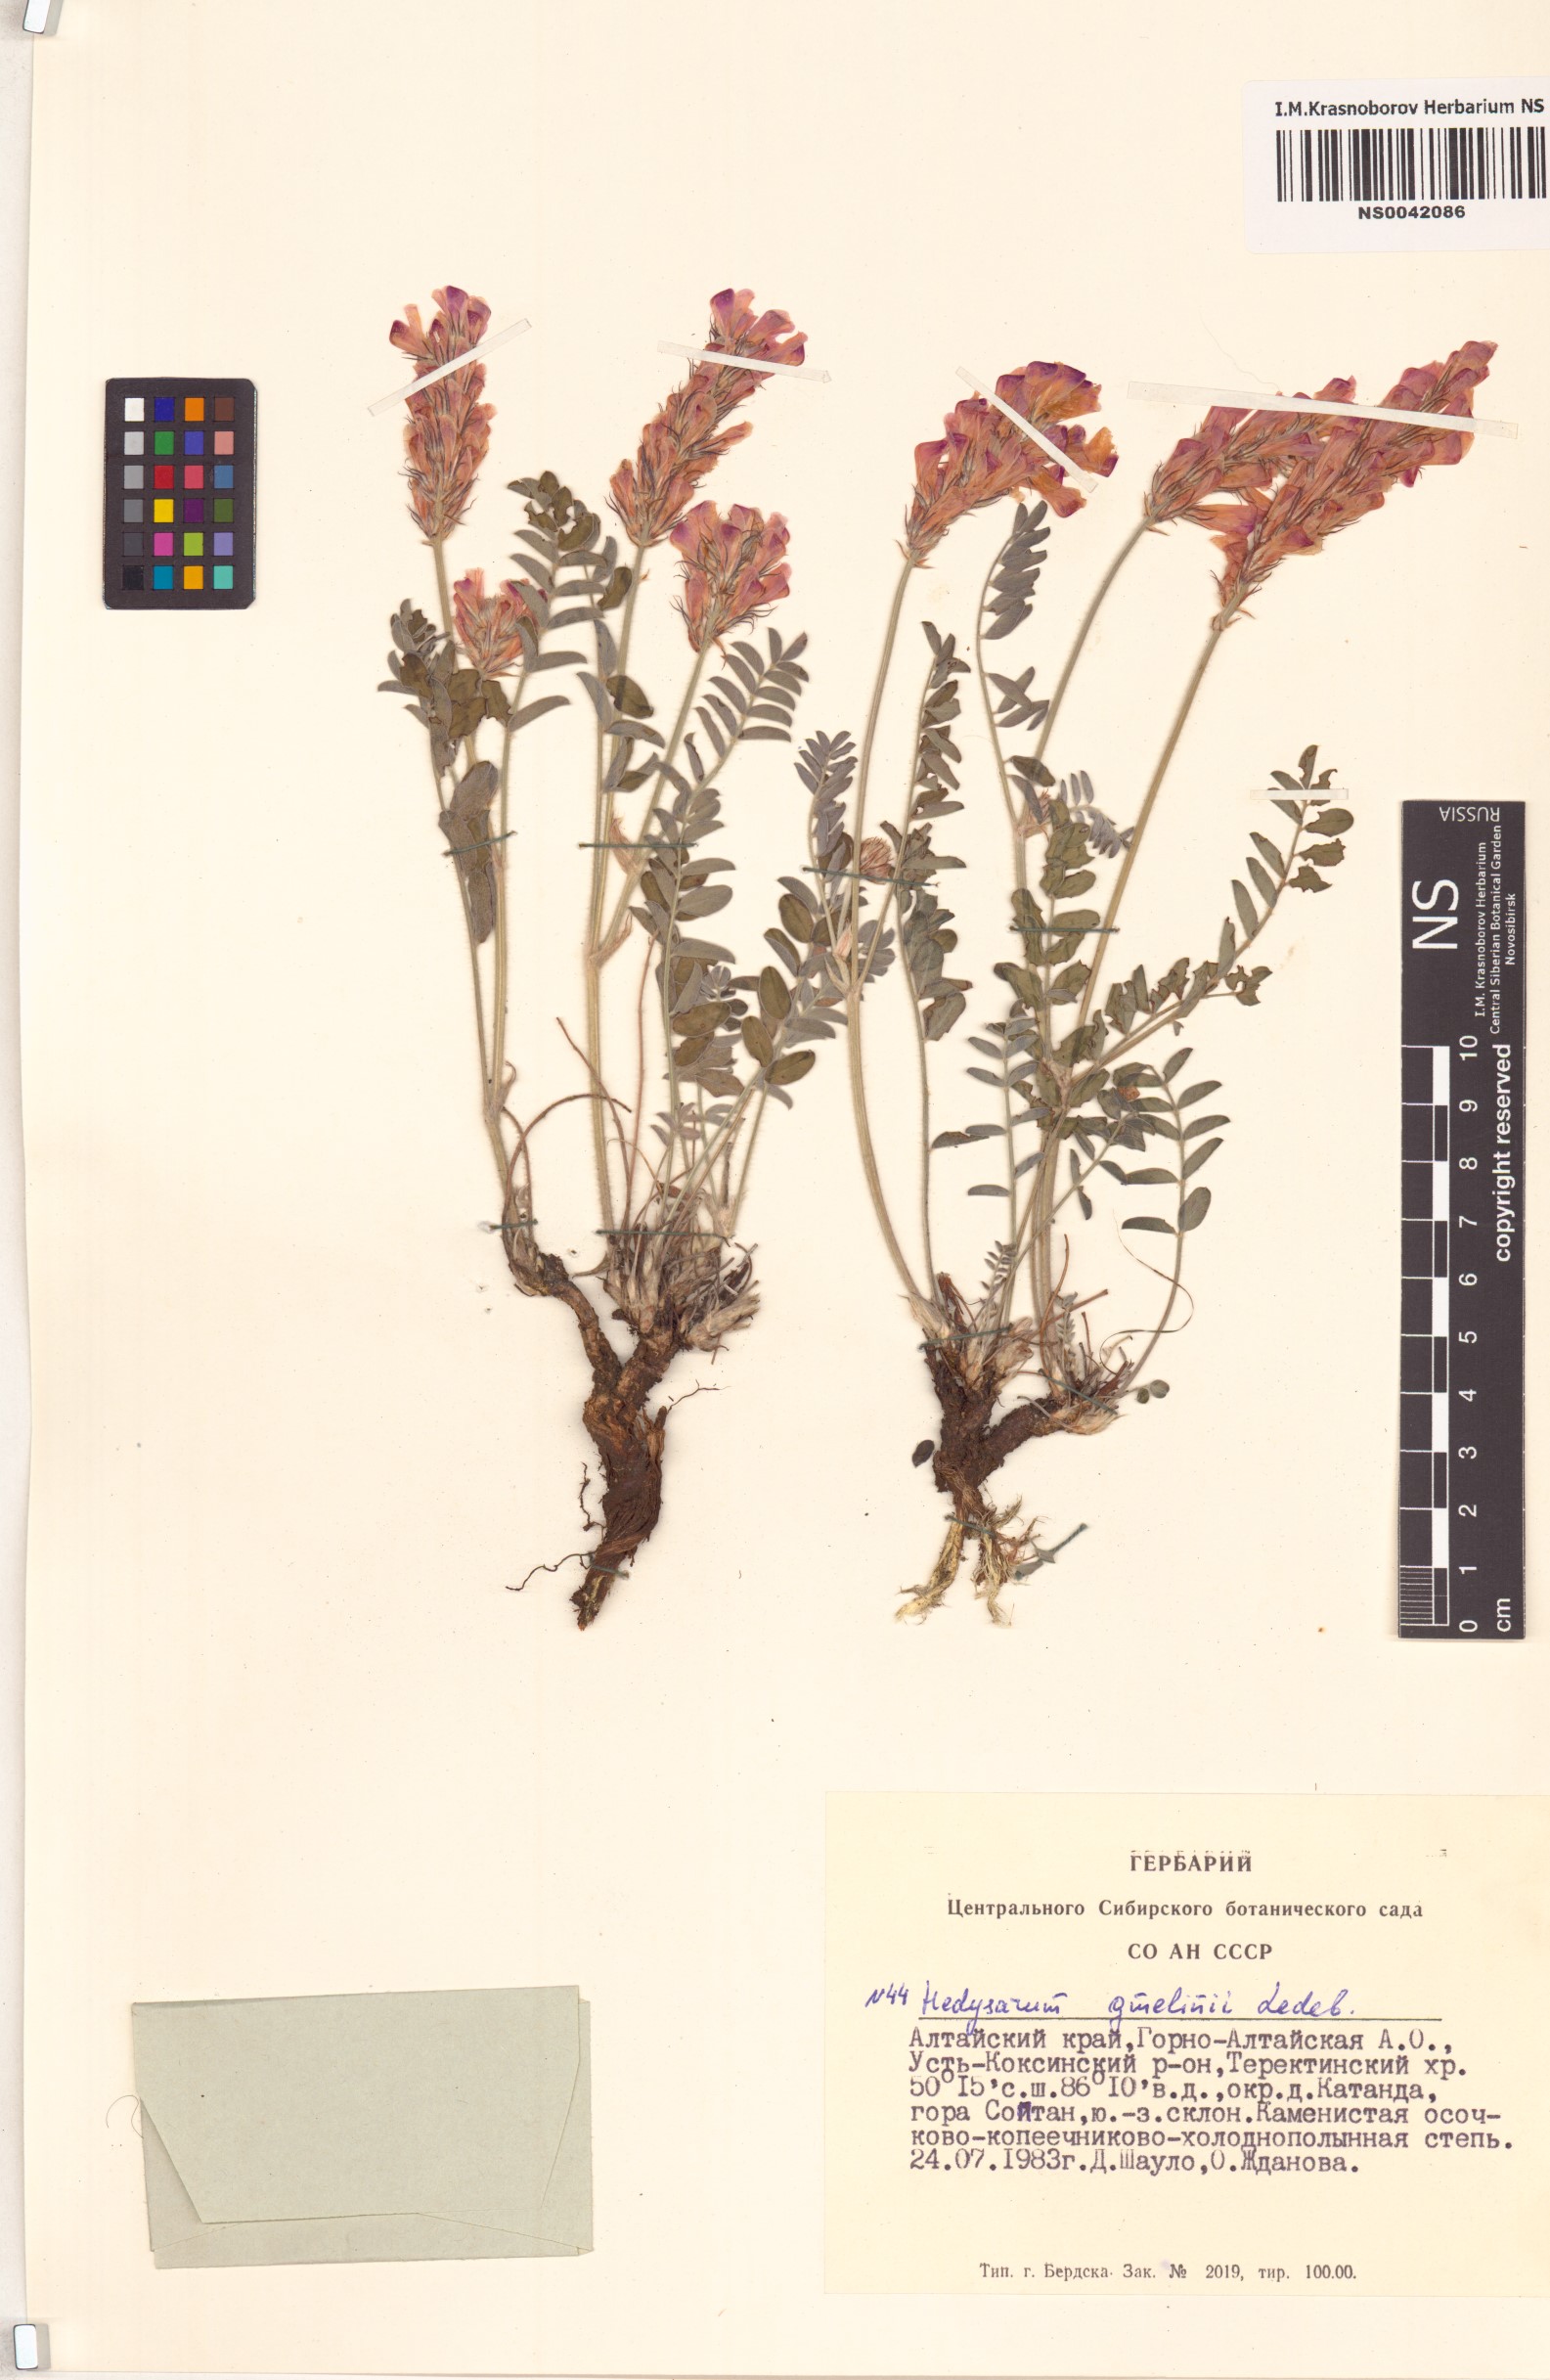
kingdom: Plantae
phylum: Tracheophyta
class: Magnoliopsida
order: Fabales
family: Fabaceae
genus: Hedysarum
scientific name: Hedysarum gmelinii
